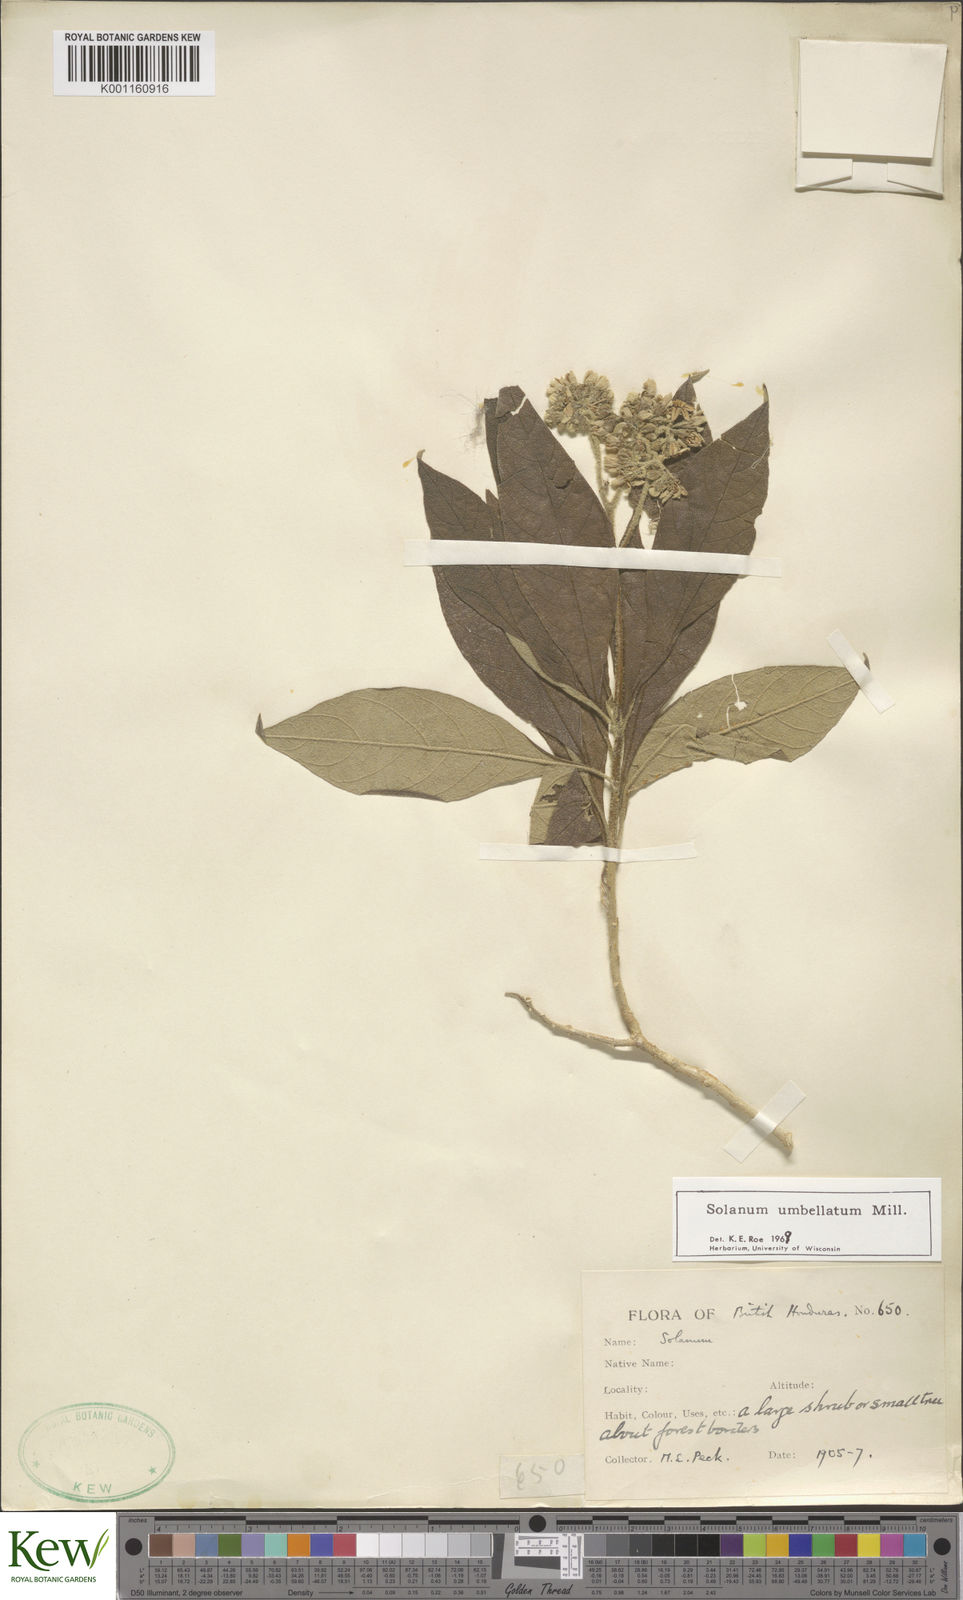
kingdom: Plantae
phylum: Tracheophyta
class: Magnoliopsida
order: Solanales
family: Solanaceae
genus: Solanum
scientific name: Solanum umbellatum
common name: Nightshade
